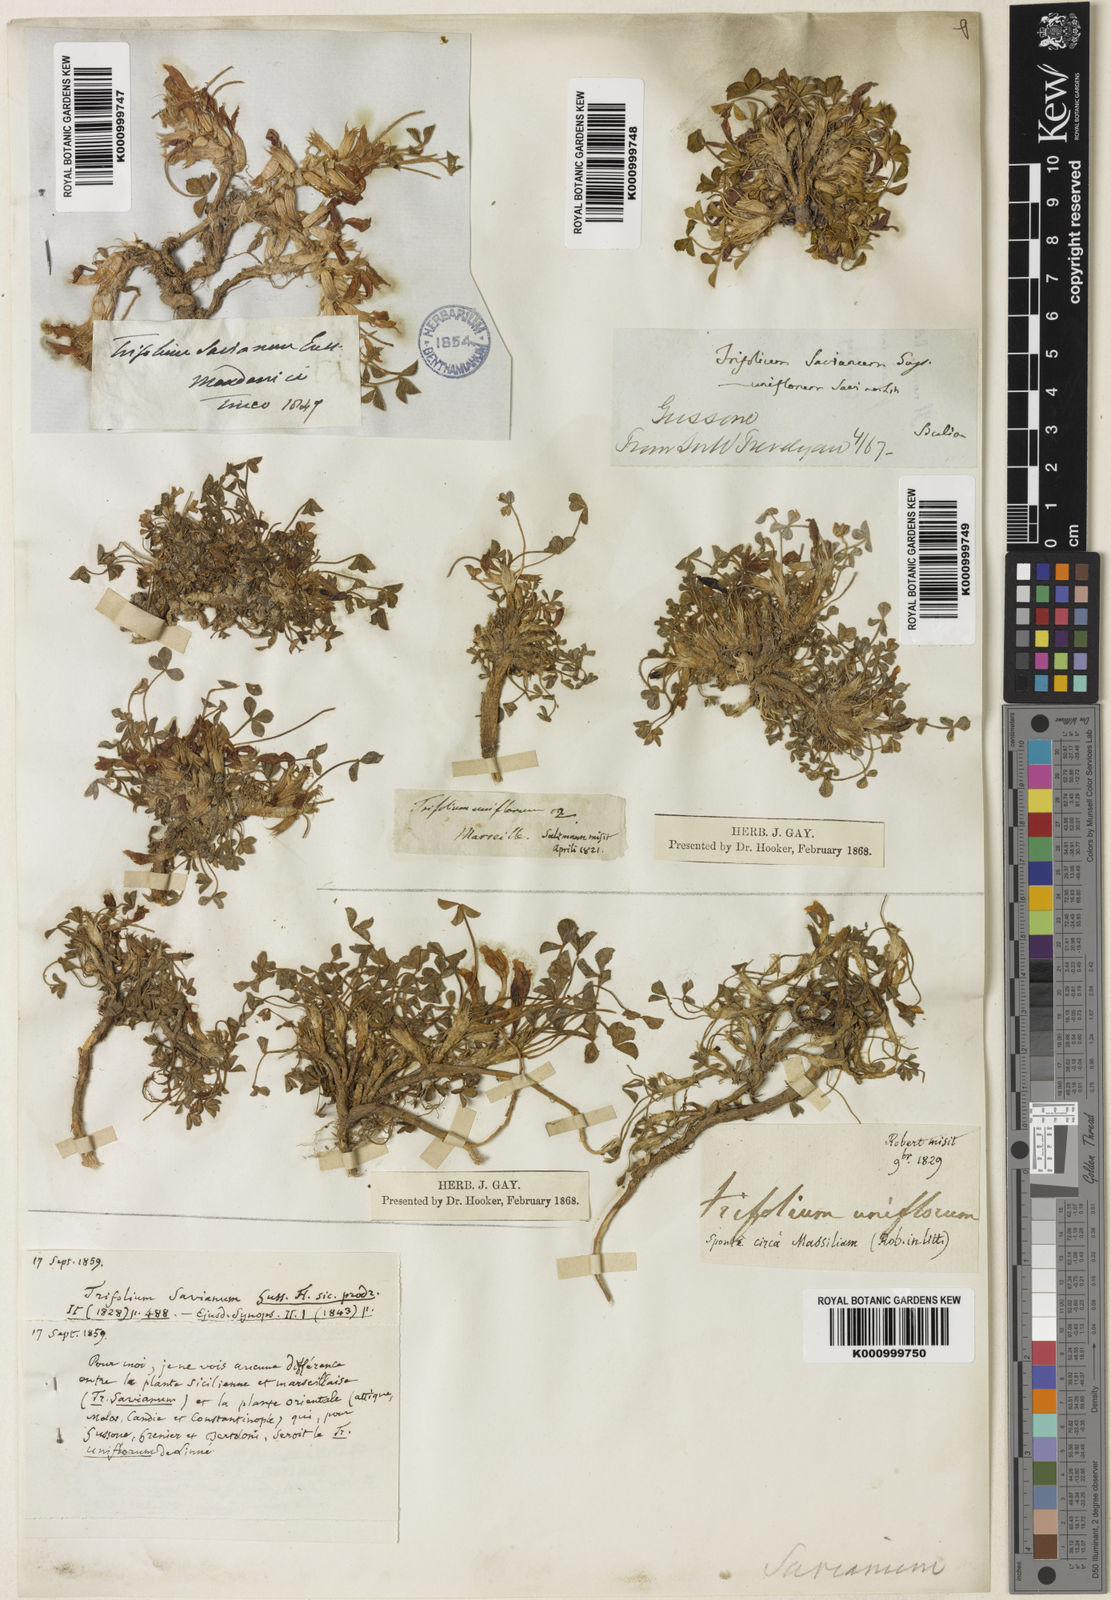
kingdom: Plantae
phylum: Tracheophyta
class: Magnoliopsida
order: Fabales
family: Fabaceae
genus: Trifolium
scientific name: Trifolium uniflorum
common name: One-flower clover
